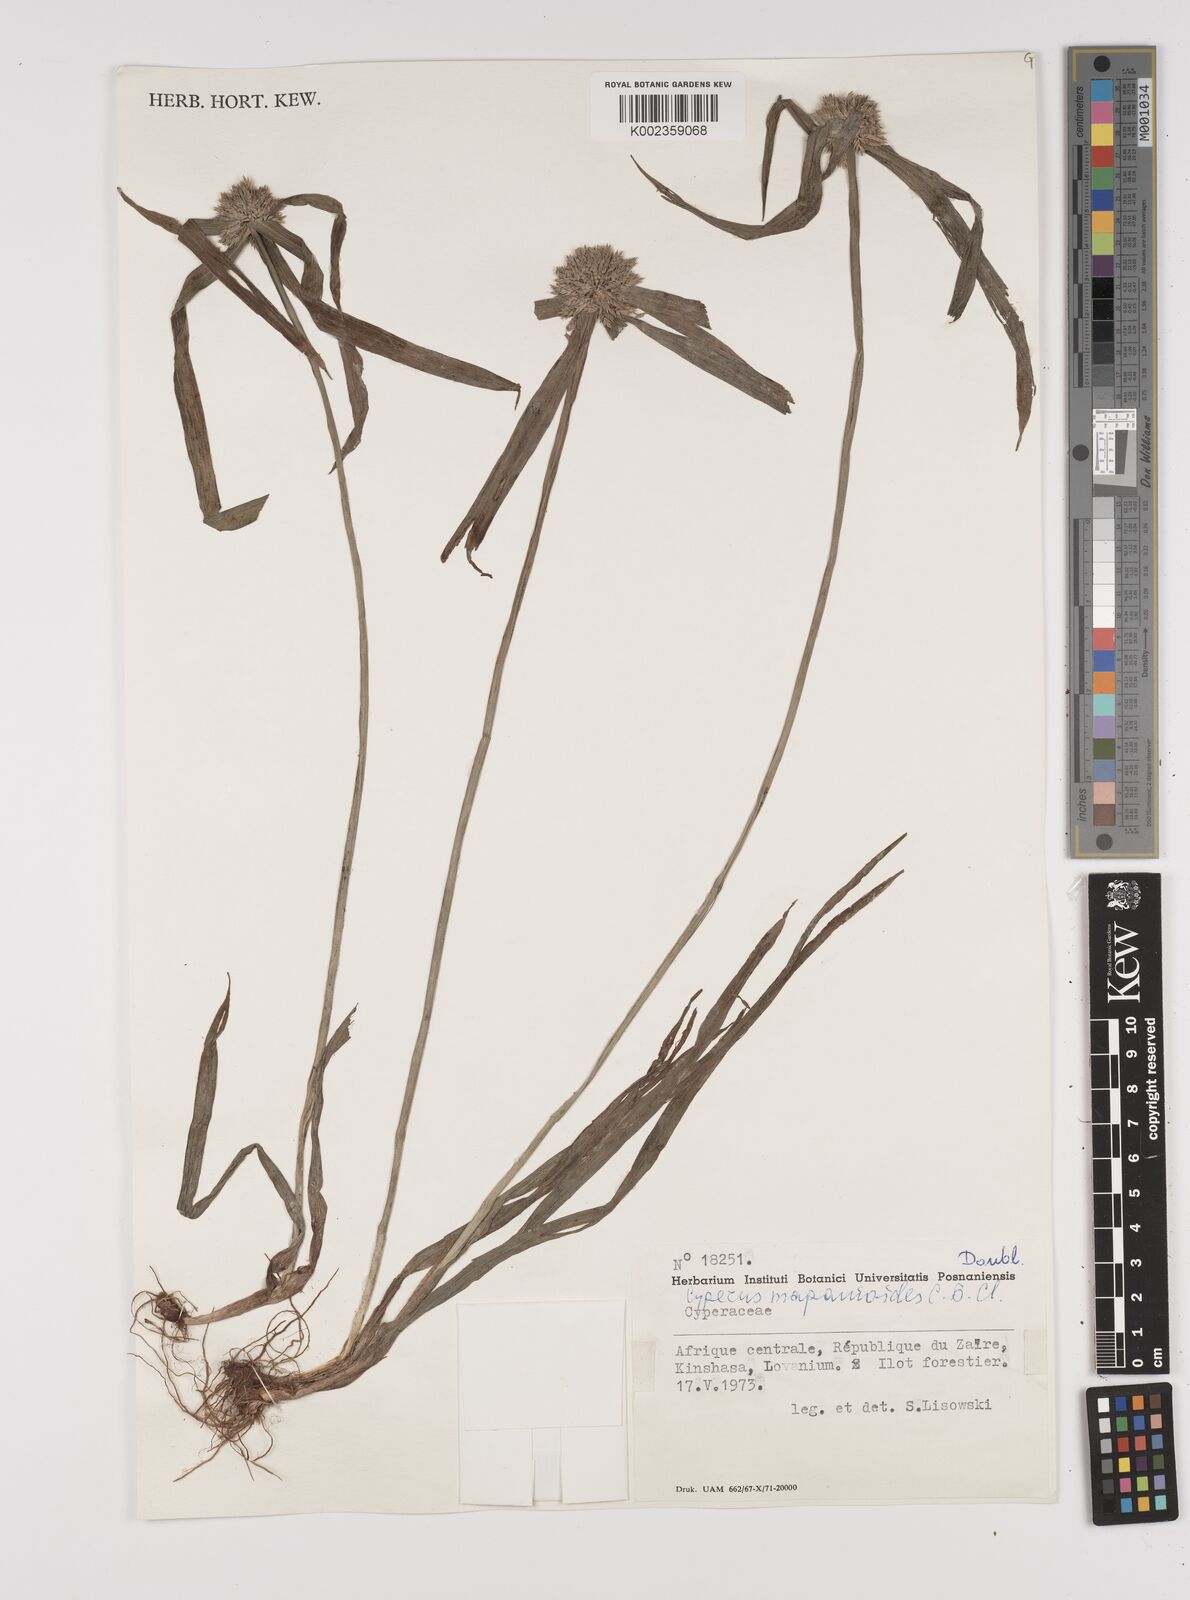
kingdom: Plantae
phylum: Tracheophyta
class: Liliopsida
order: Poales
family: Cyperaceae
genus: Cyperus
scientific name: Cyperus mapanioides
